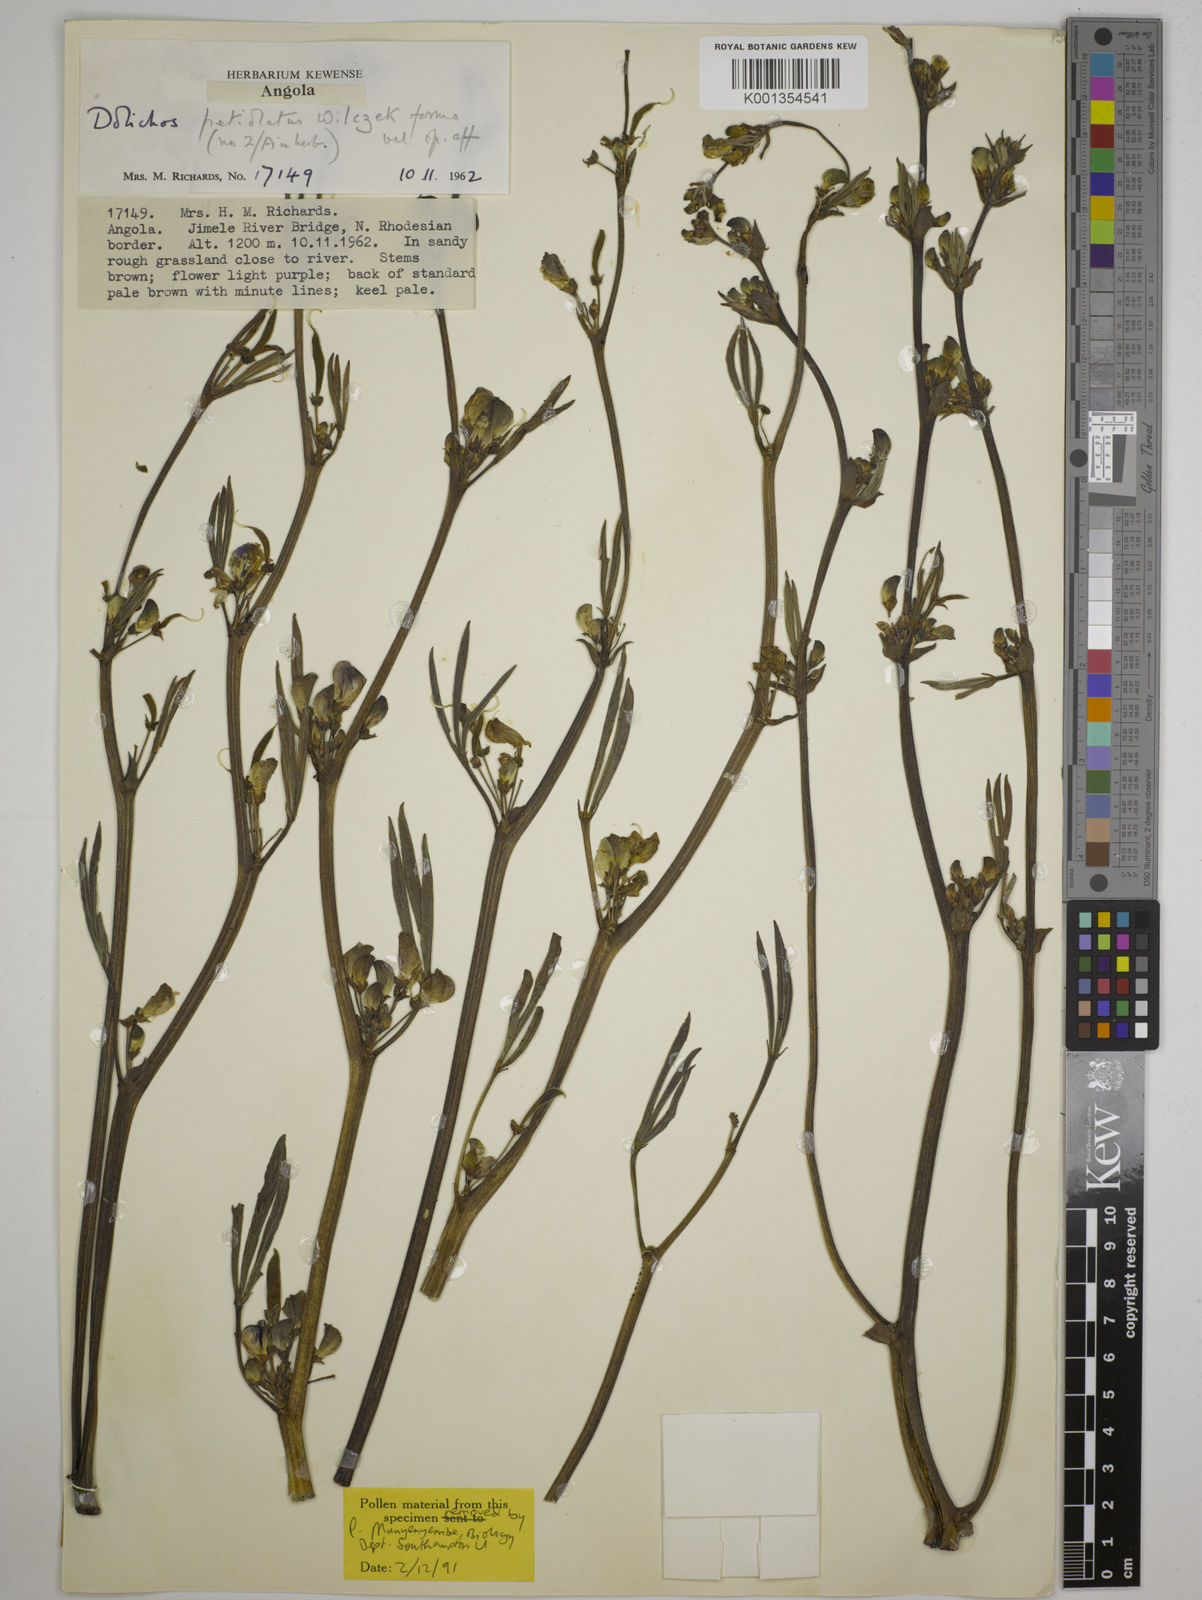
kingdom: Plantae
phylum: Tracheophyta
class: Magnoliopsida
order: Fabales
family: Fabaceae
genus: Dolichos
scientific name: Dolichos petiolatus
